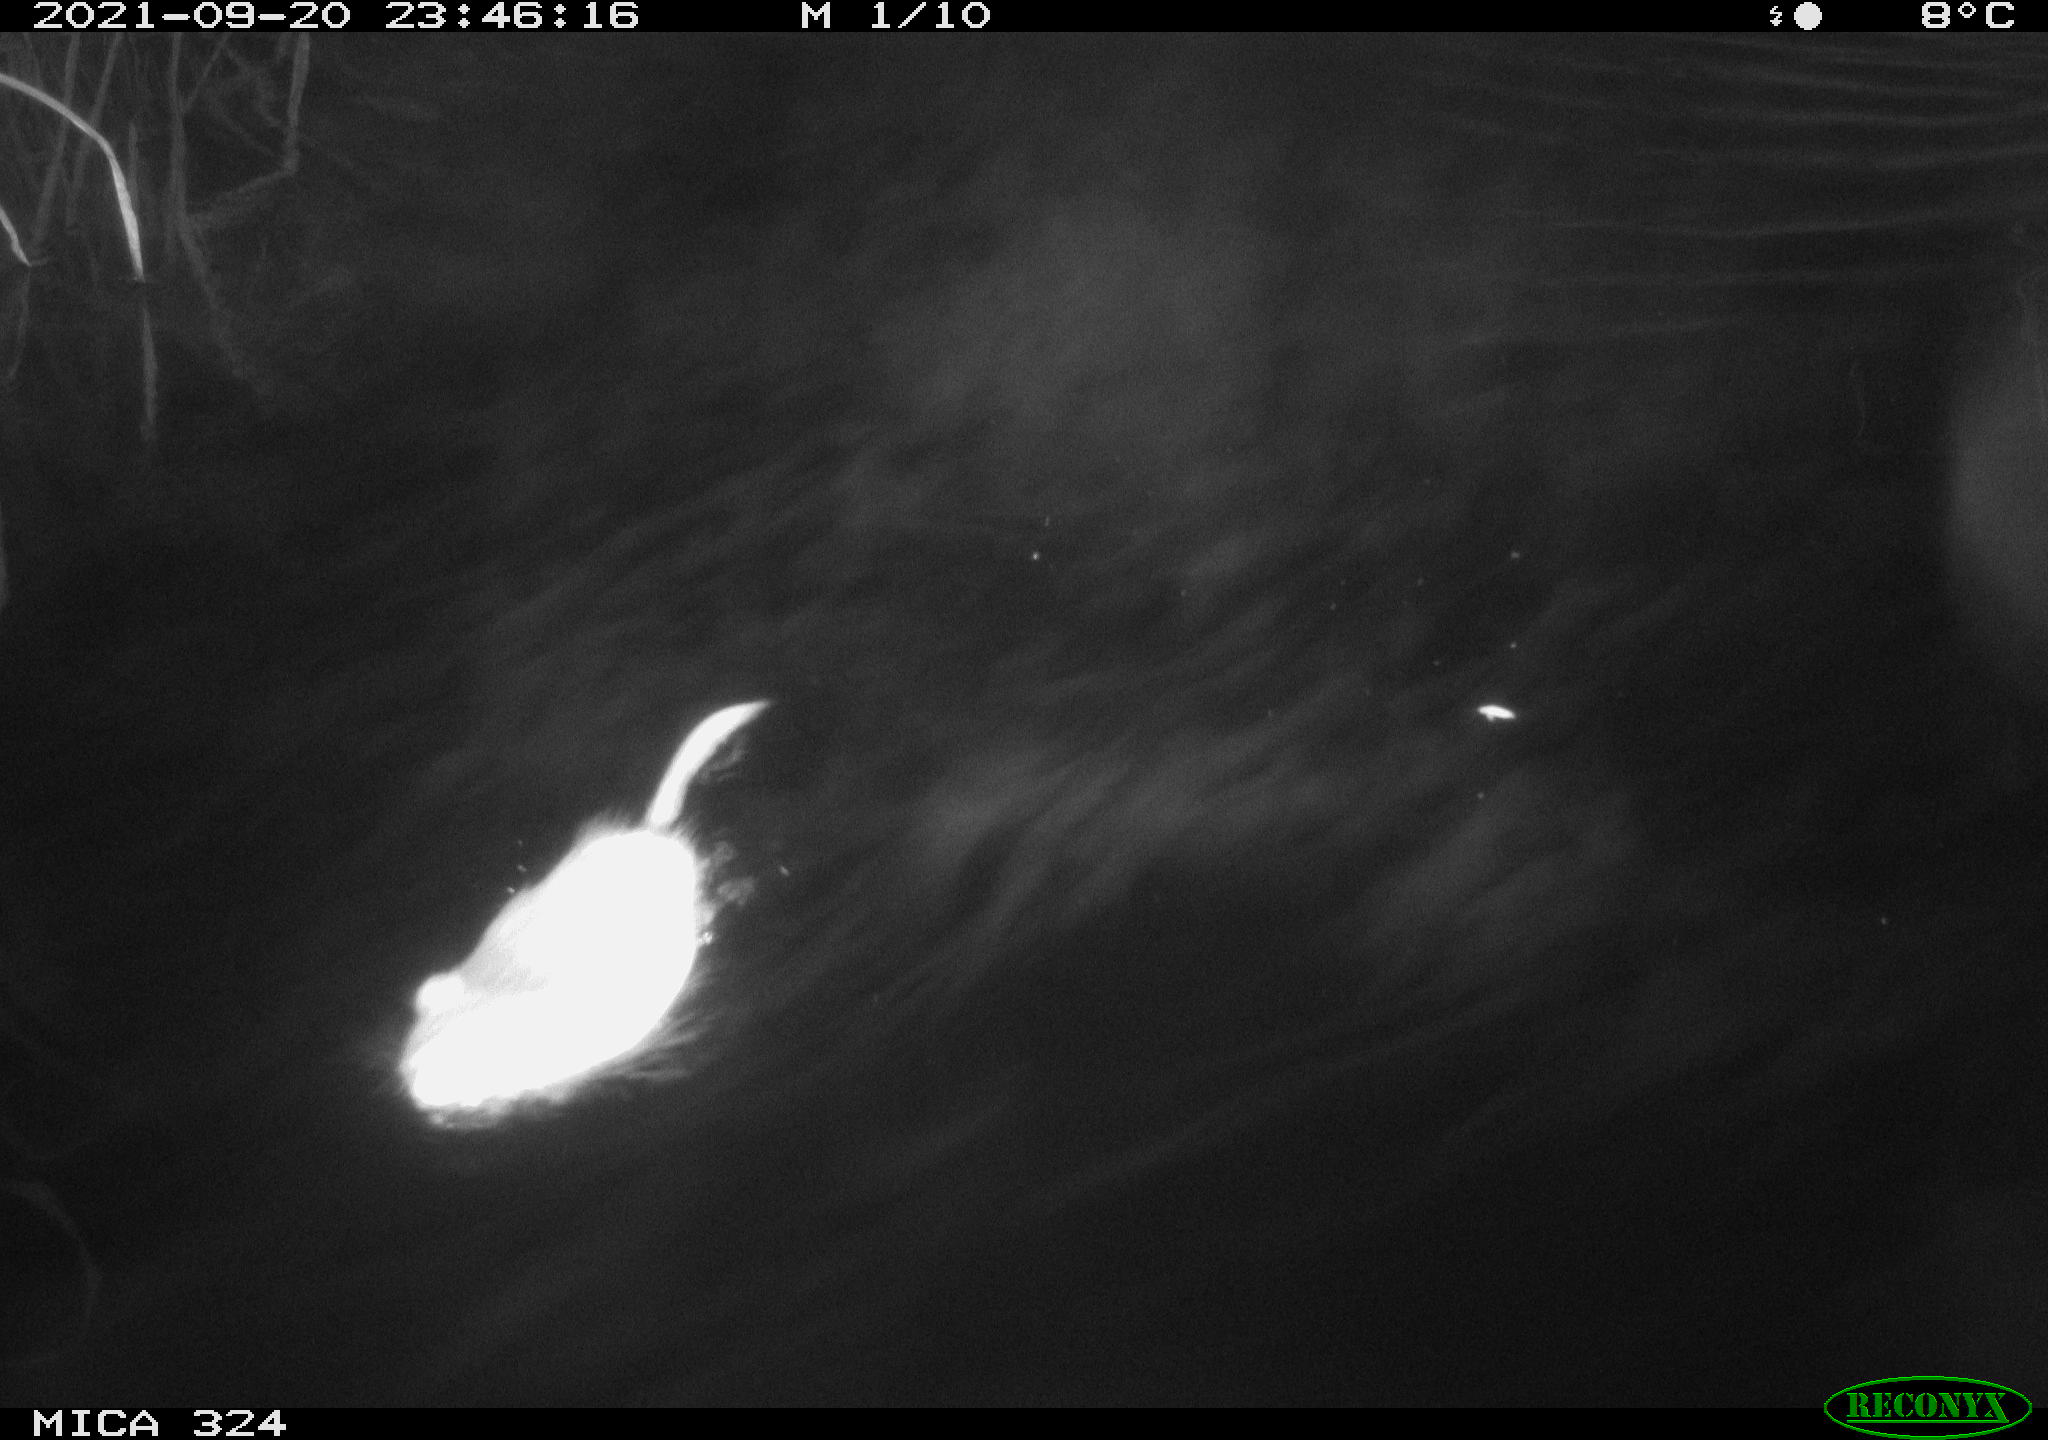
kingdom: Animalia
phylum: Chordata
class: Mammalia
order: Rodentia
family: Cricetidae
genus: Ondatra
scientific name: Ondatra zibethicus
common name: Muskrat
